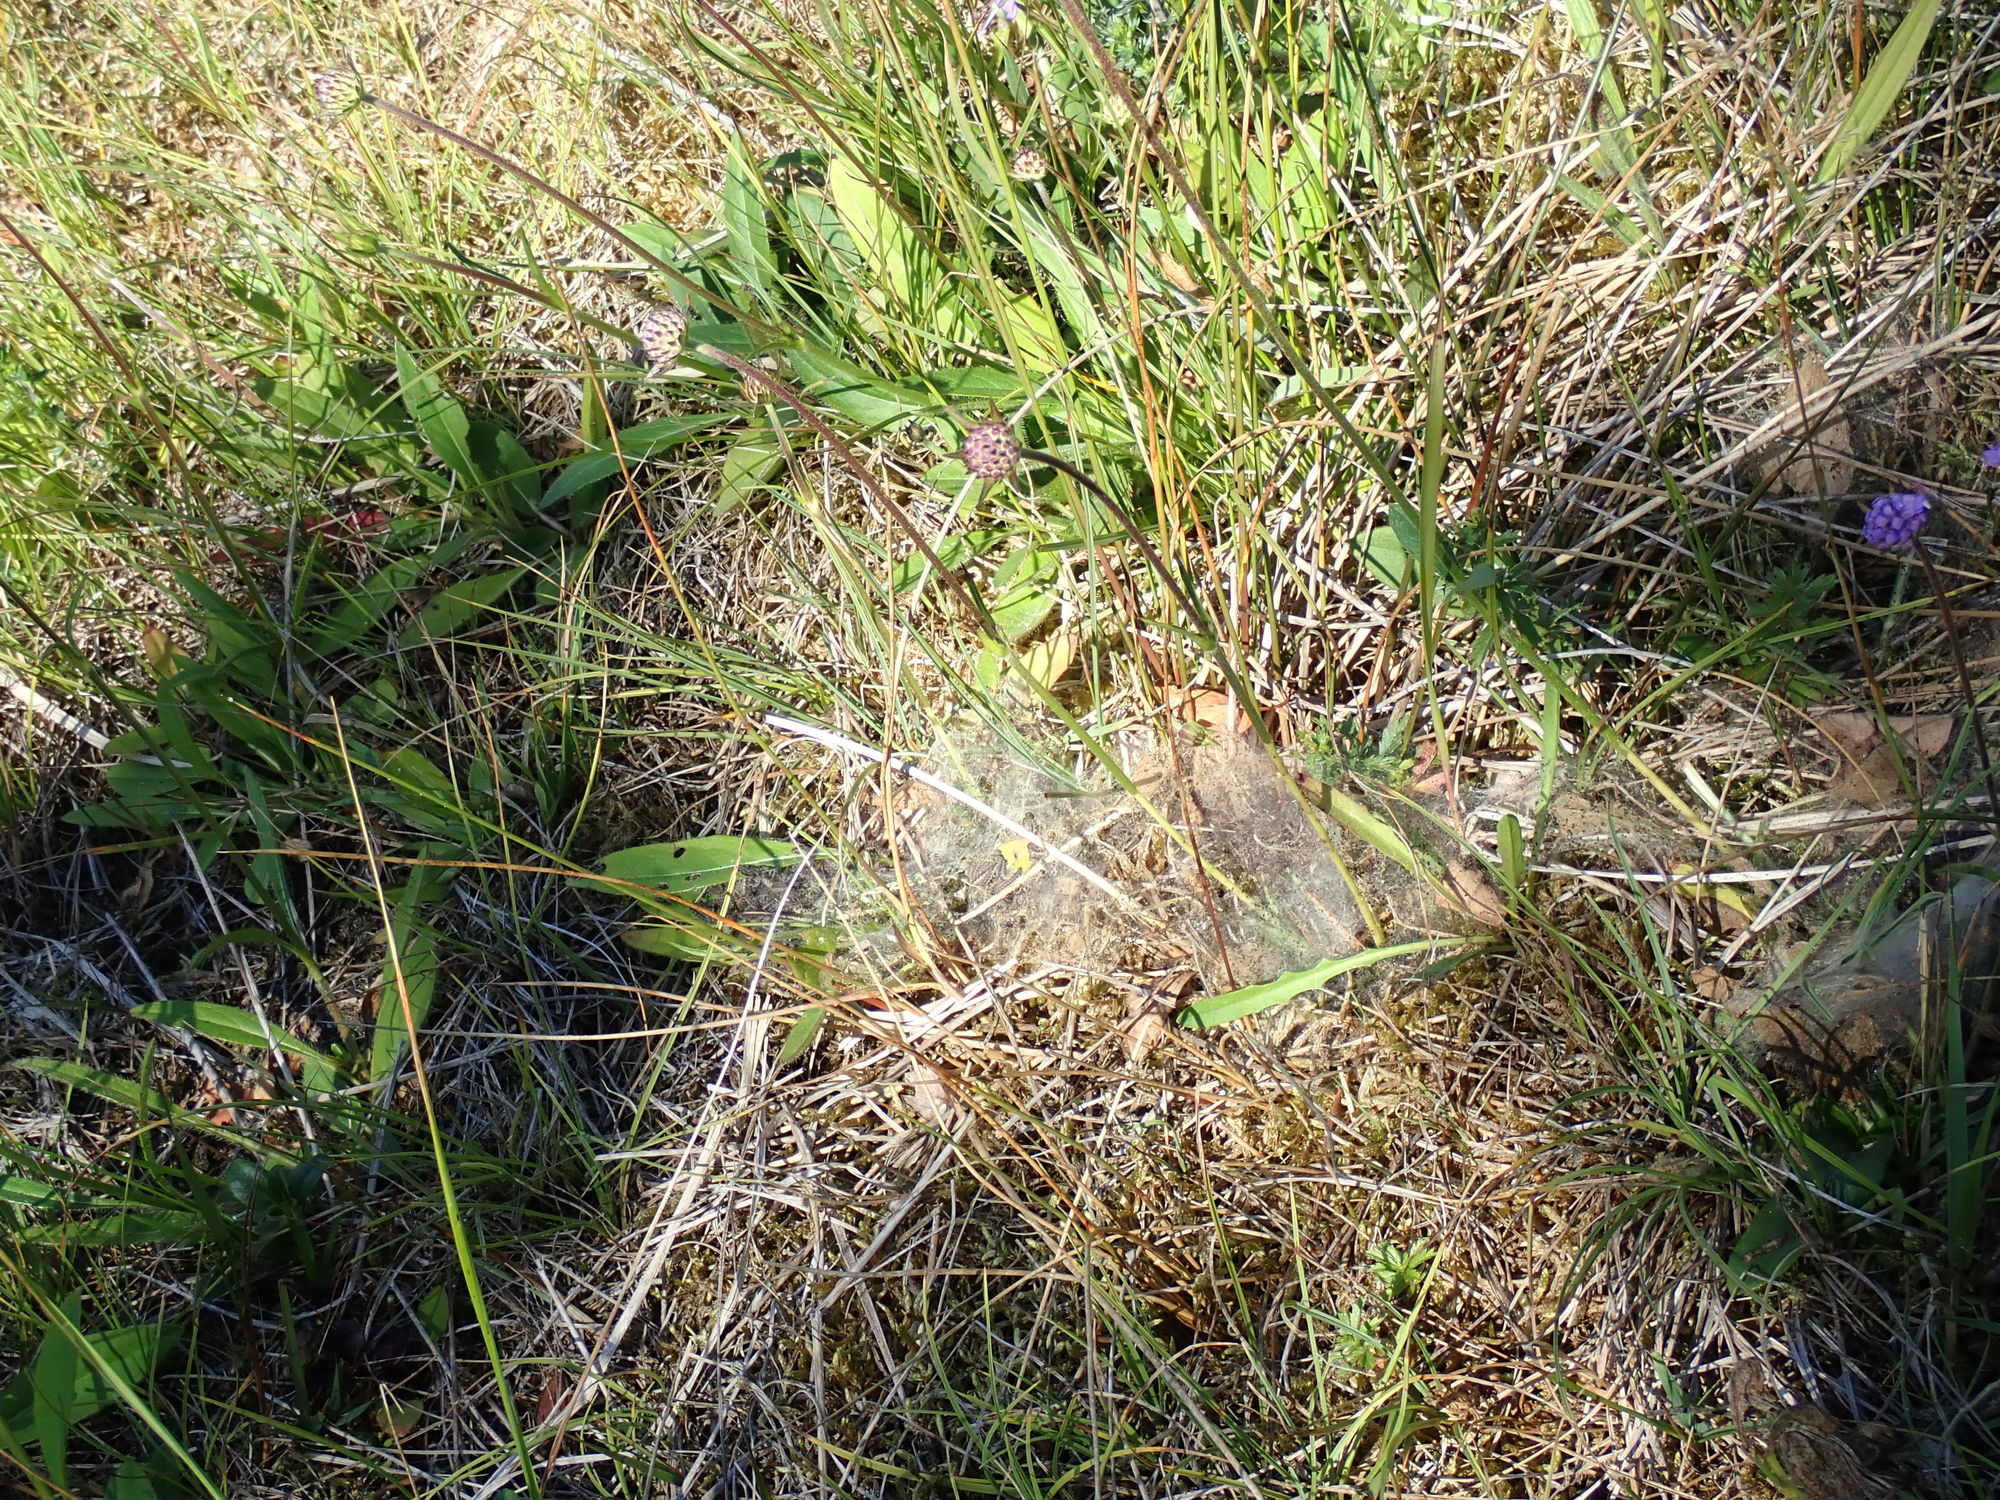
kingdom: Animalia
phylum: Arthropoda
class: Insecta
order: Lepidoptera
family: Nymphalidae
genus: Euphydryas
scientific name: Euphydryas aurinia
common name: Hedepletvinge
